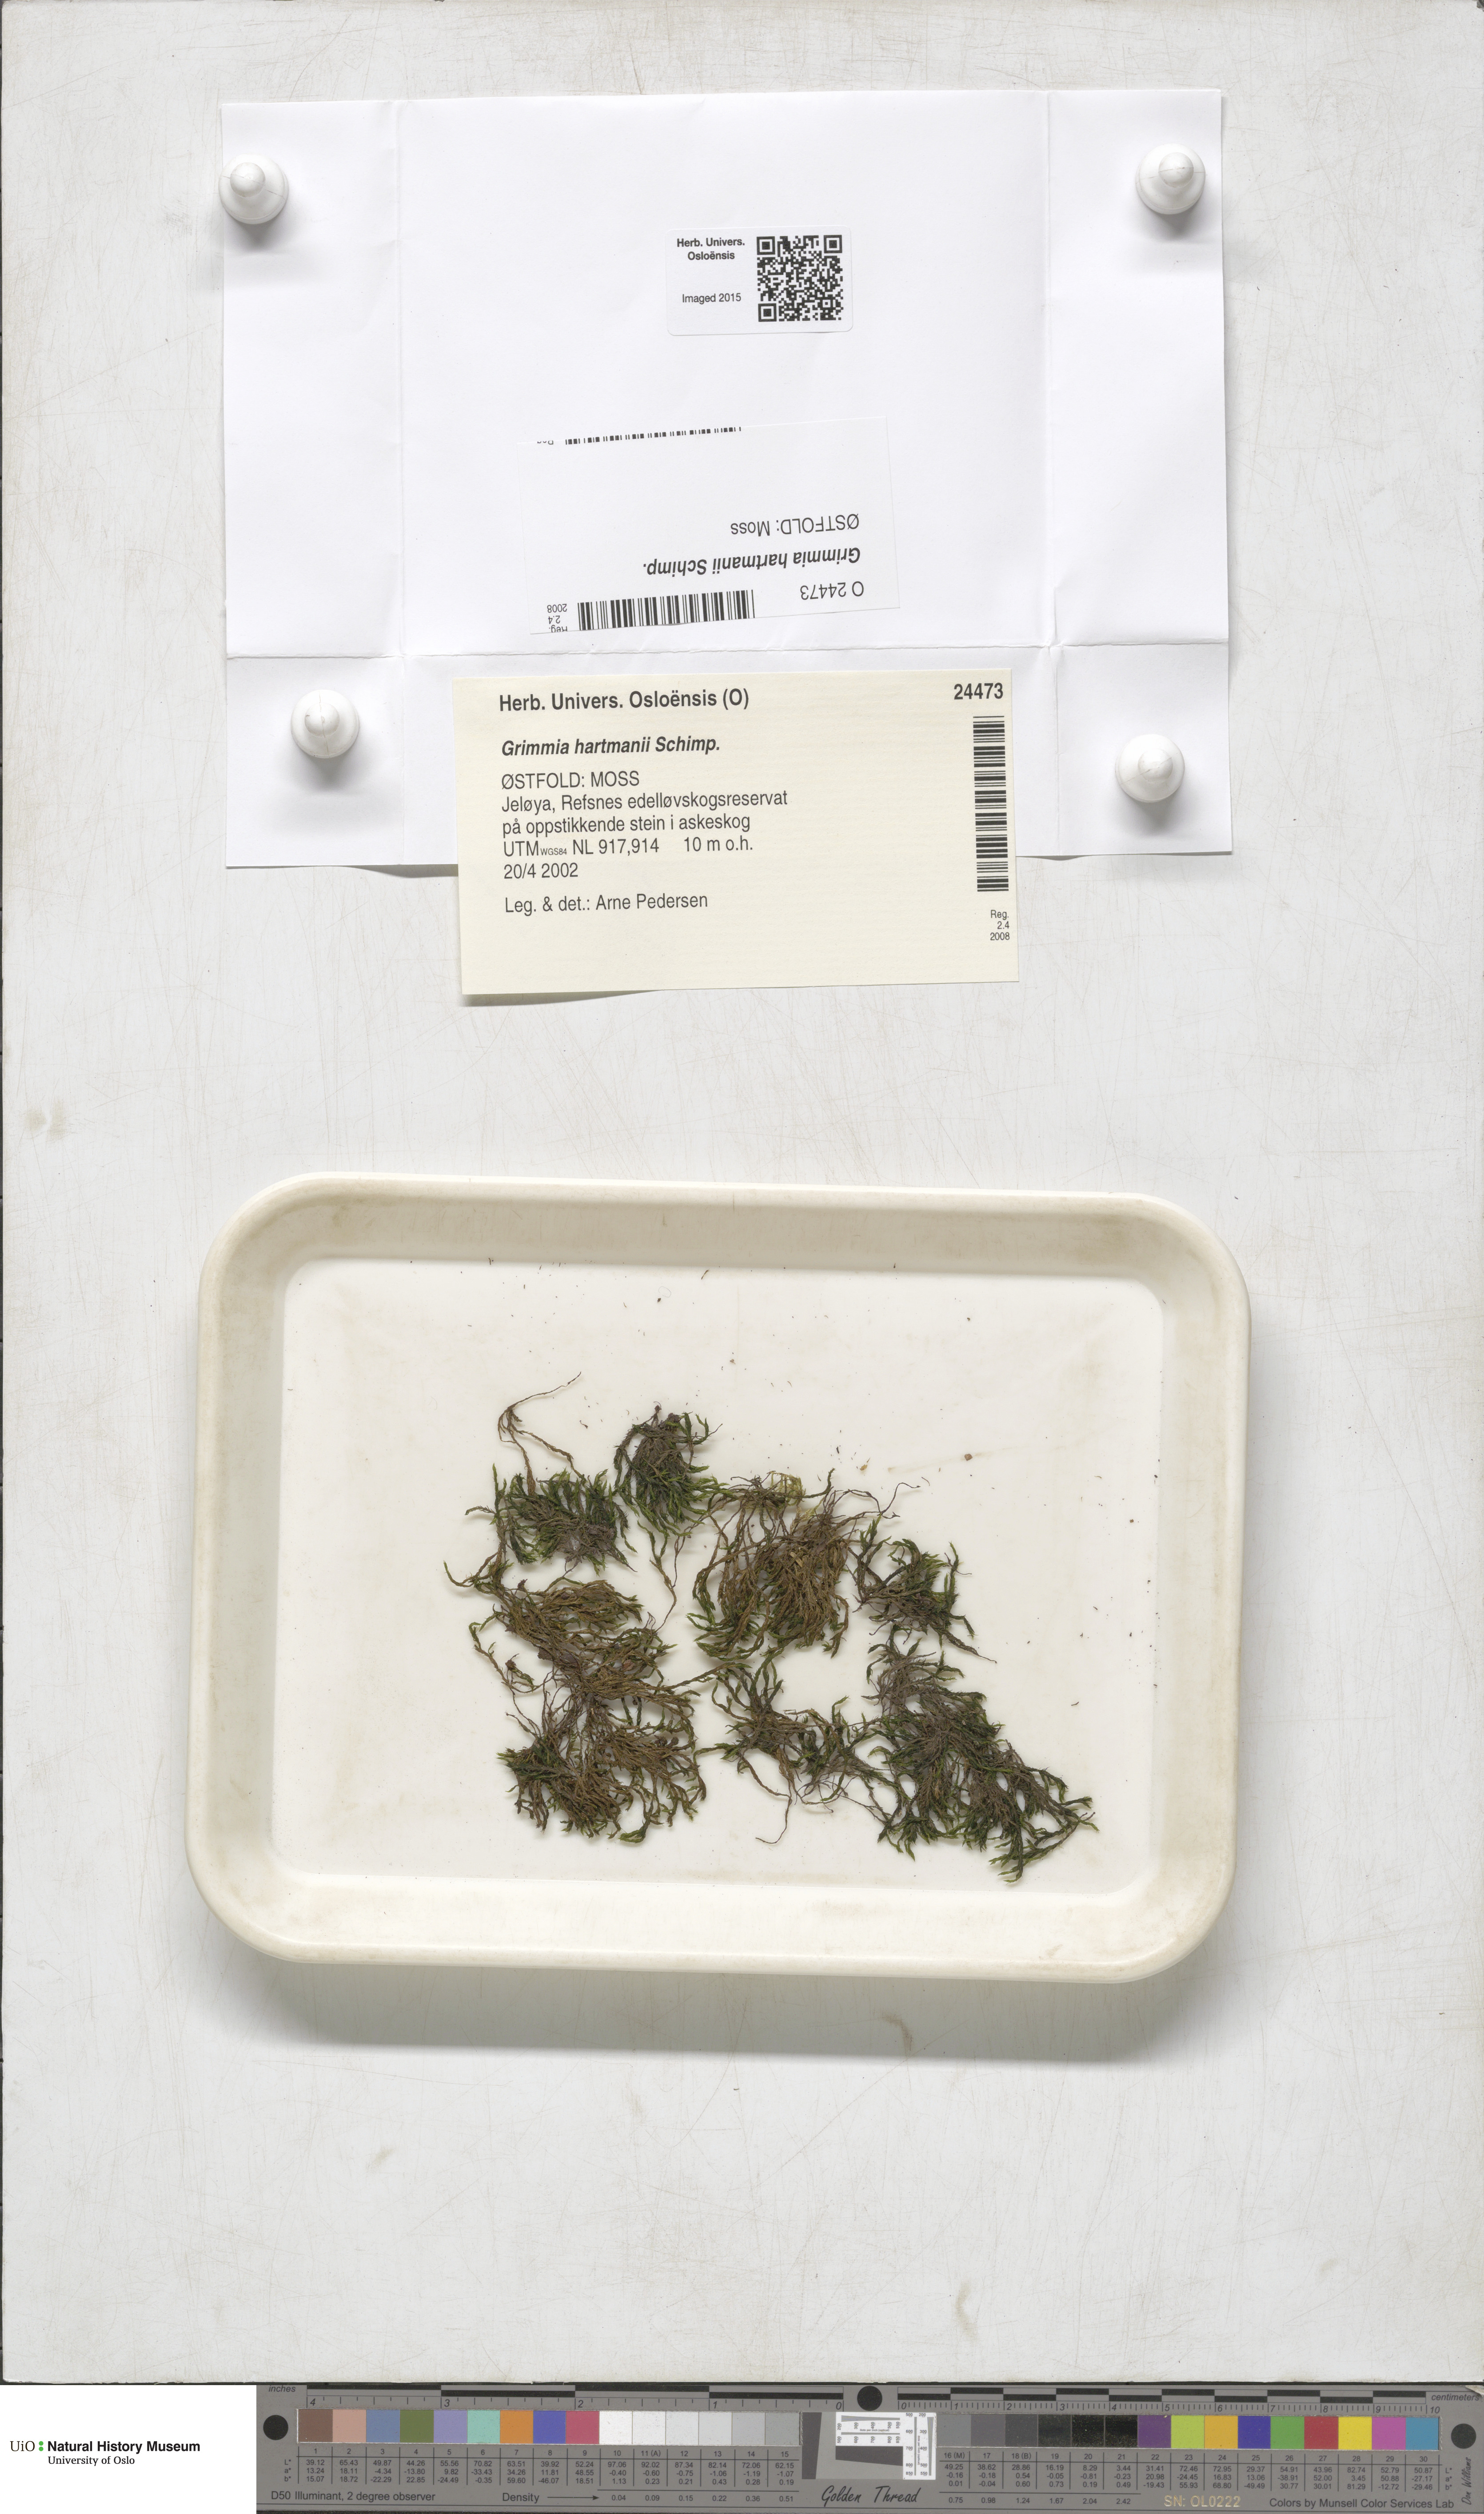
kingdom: Plantae
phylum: Bryophyta
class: Bryopsida
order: Grimmiales
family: Grimmiaceae
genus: Grimmia
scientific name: Grimmia hartmanii
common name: Hartman's grimmia
